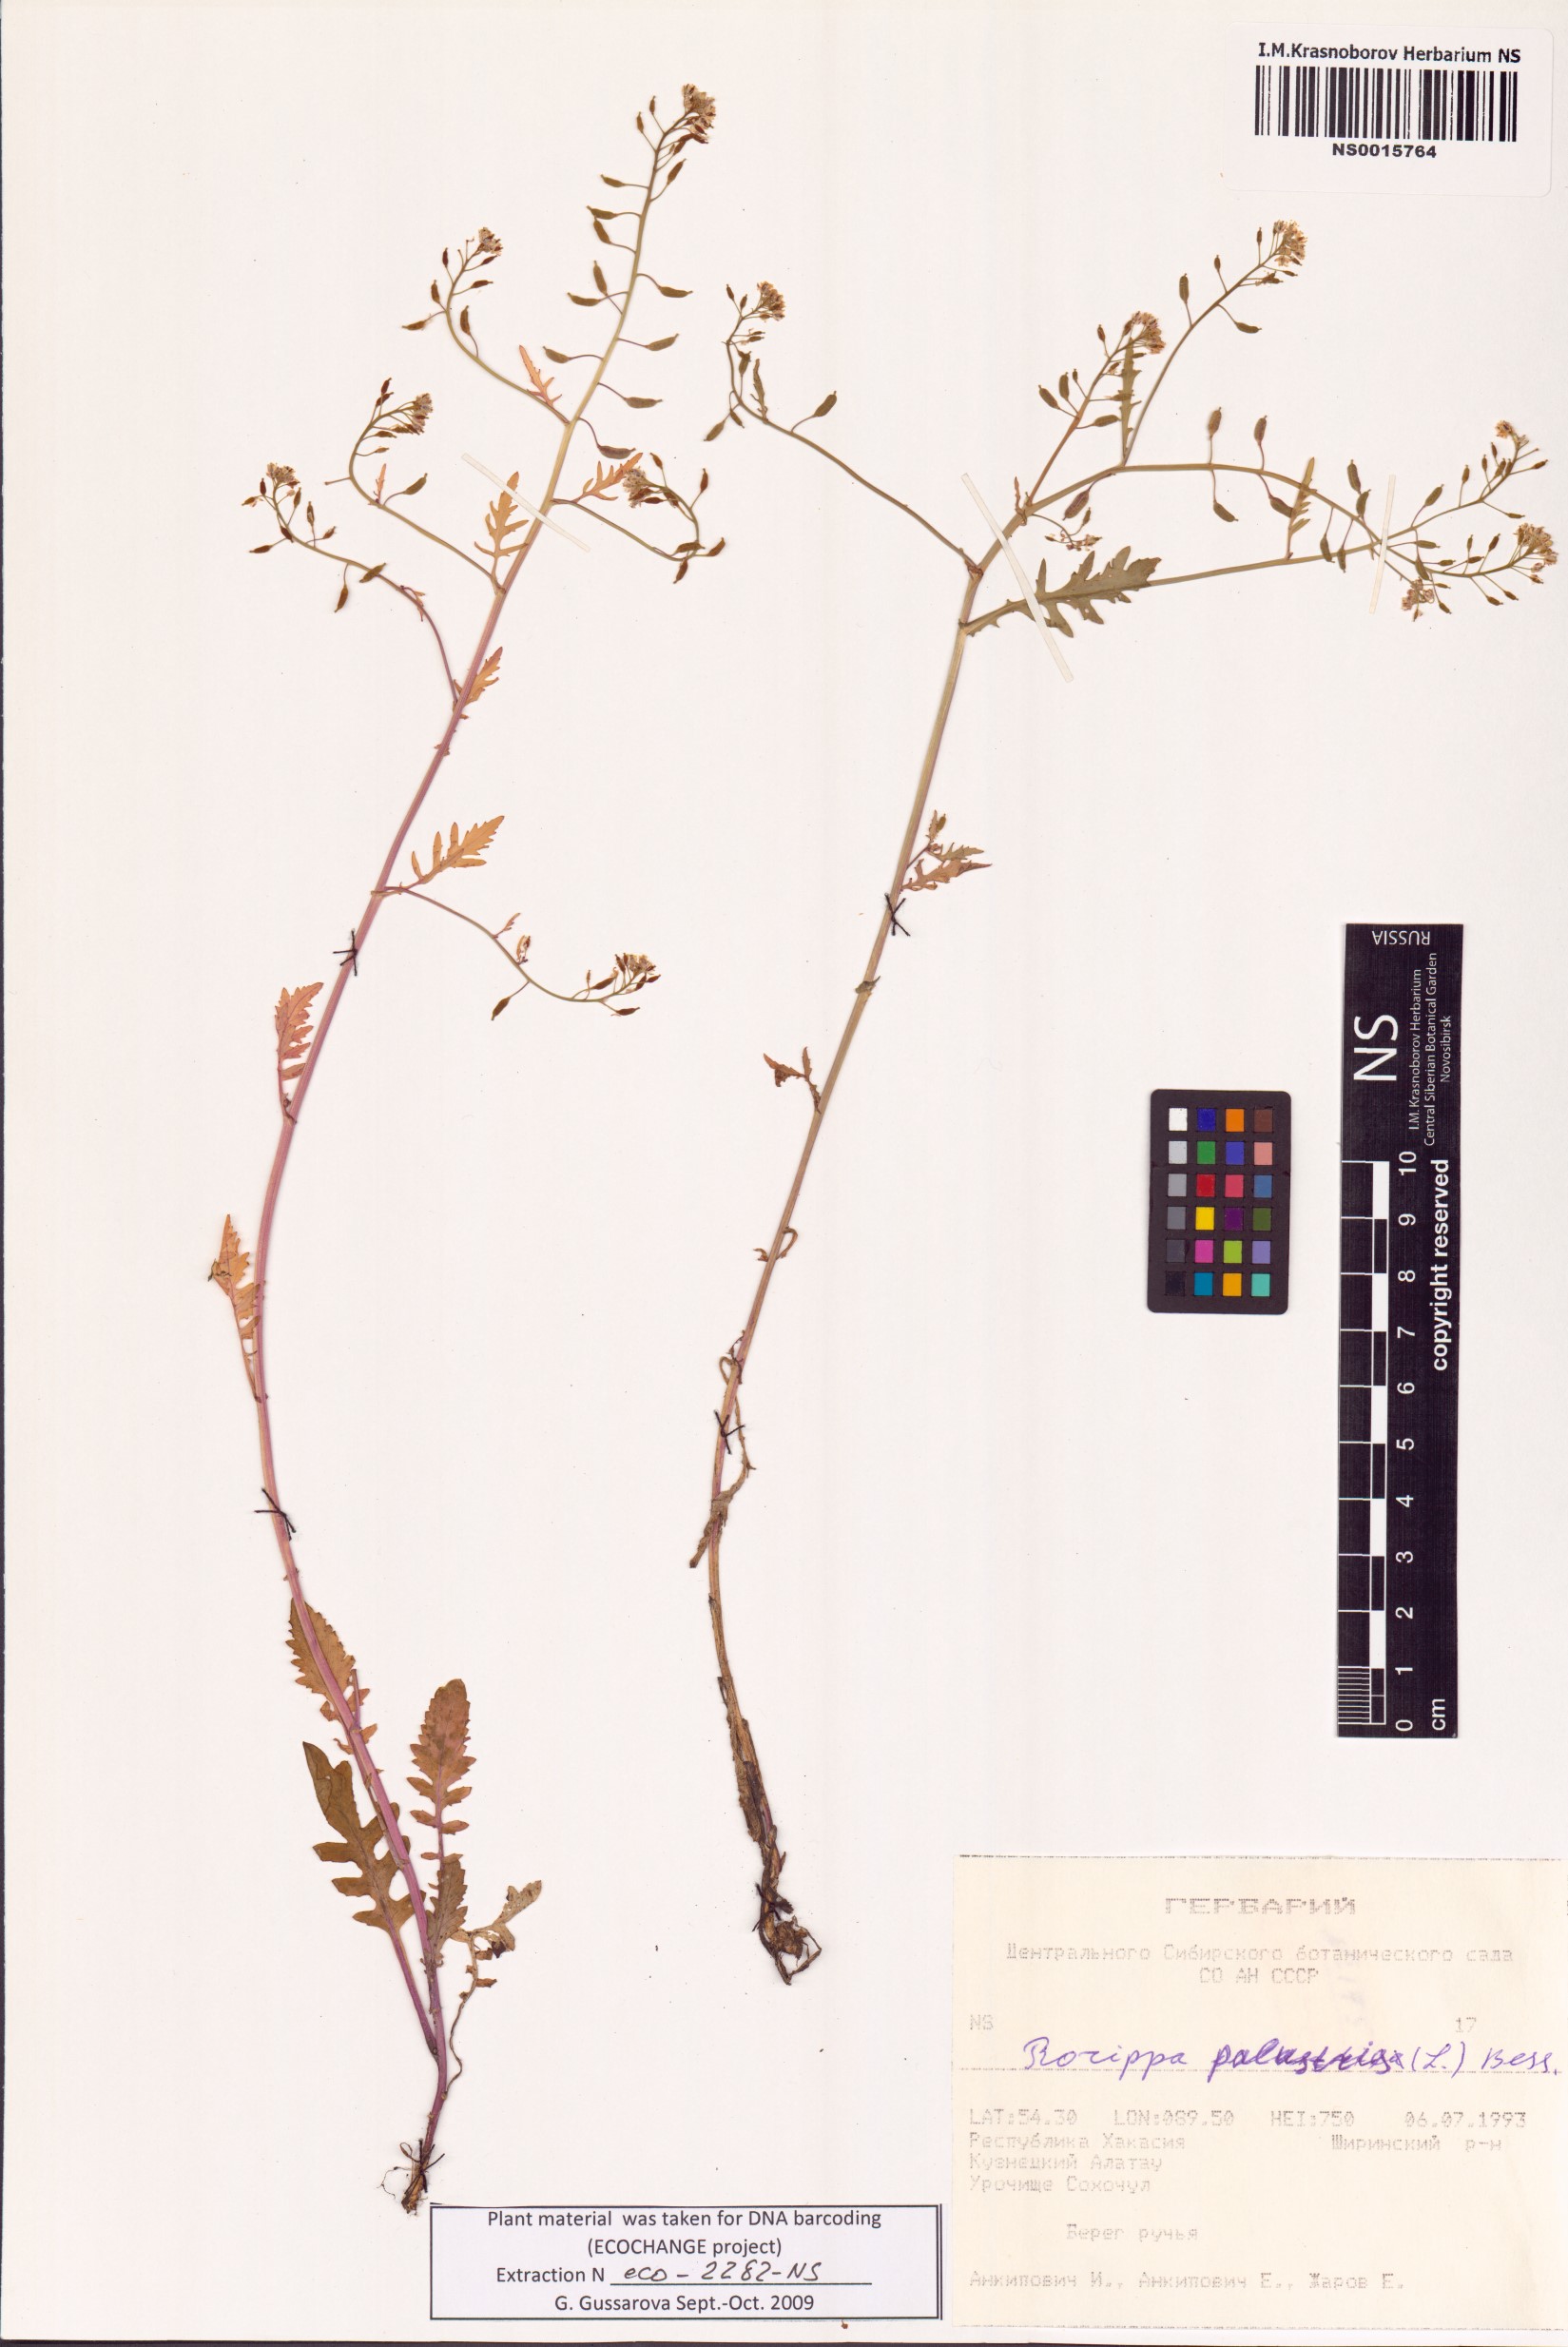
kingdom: Plantae
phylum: Tracheophyta
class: Magnoliopsida
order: Brassicales
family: Brassicaceae
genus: Rorippa
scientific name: Rorippa palustris
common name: Marsh yellow-cress
